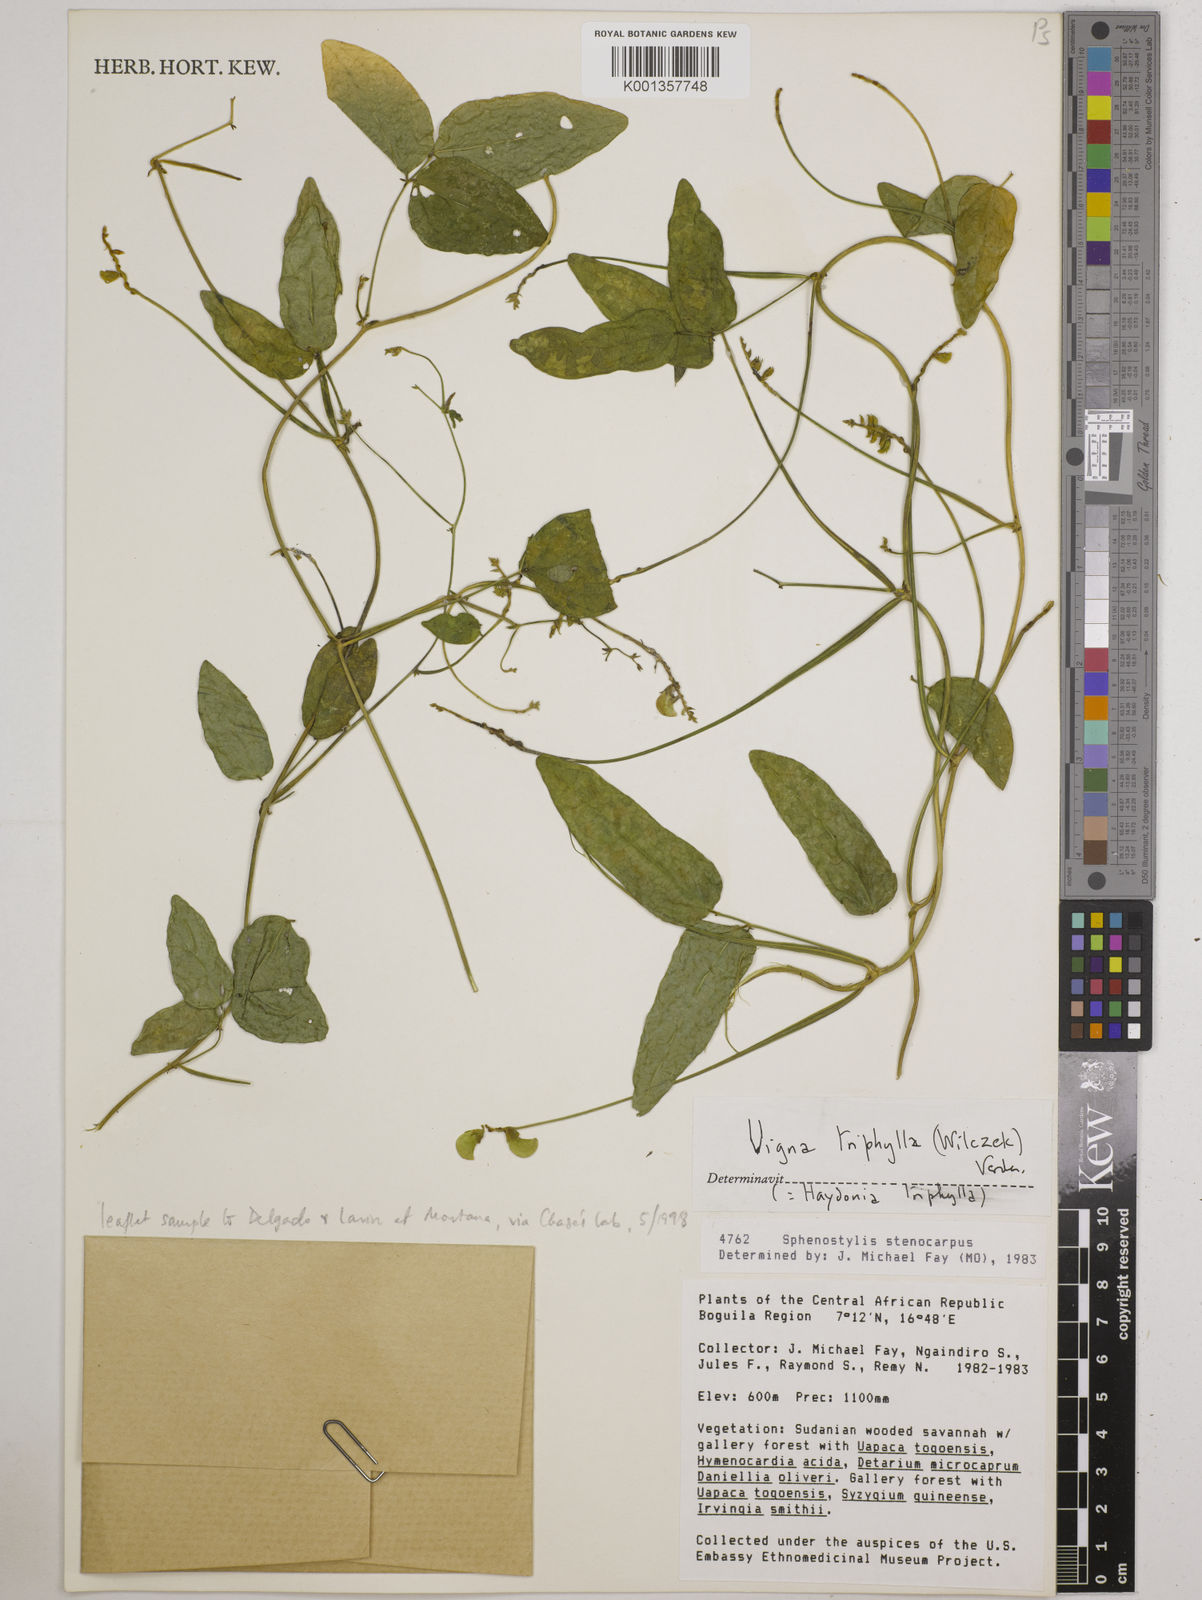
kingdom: Plantae
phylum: Tracheophyta
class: Magnoliopsida
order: Fabales
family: Fabaceae
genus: Vigna
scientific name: Vigna triphylla
